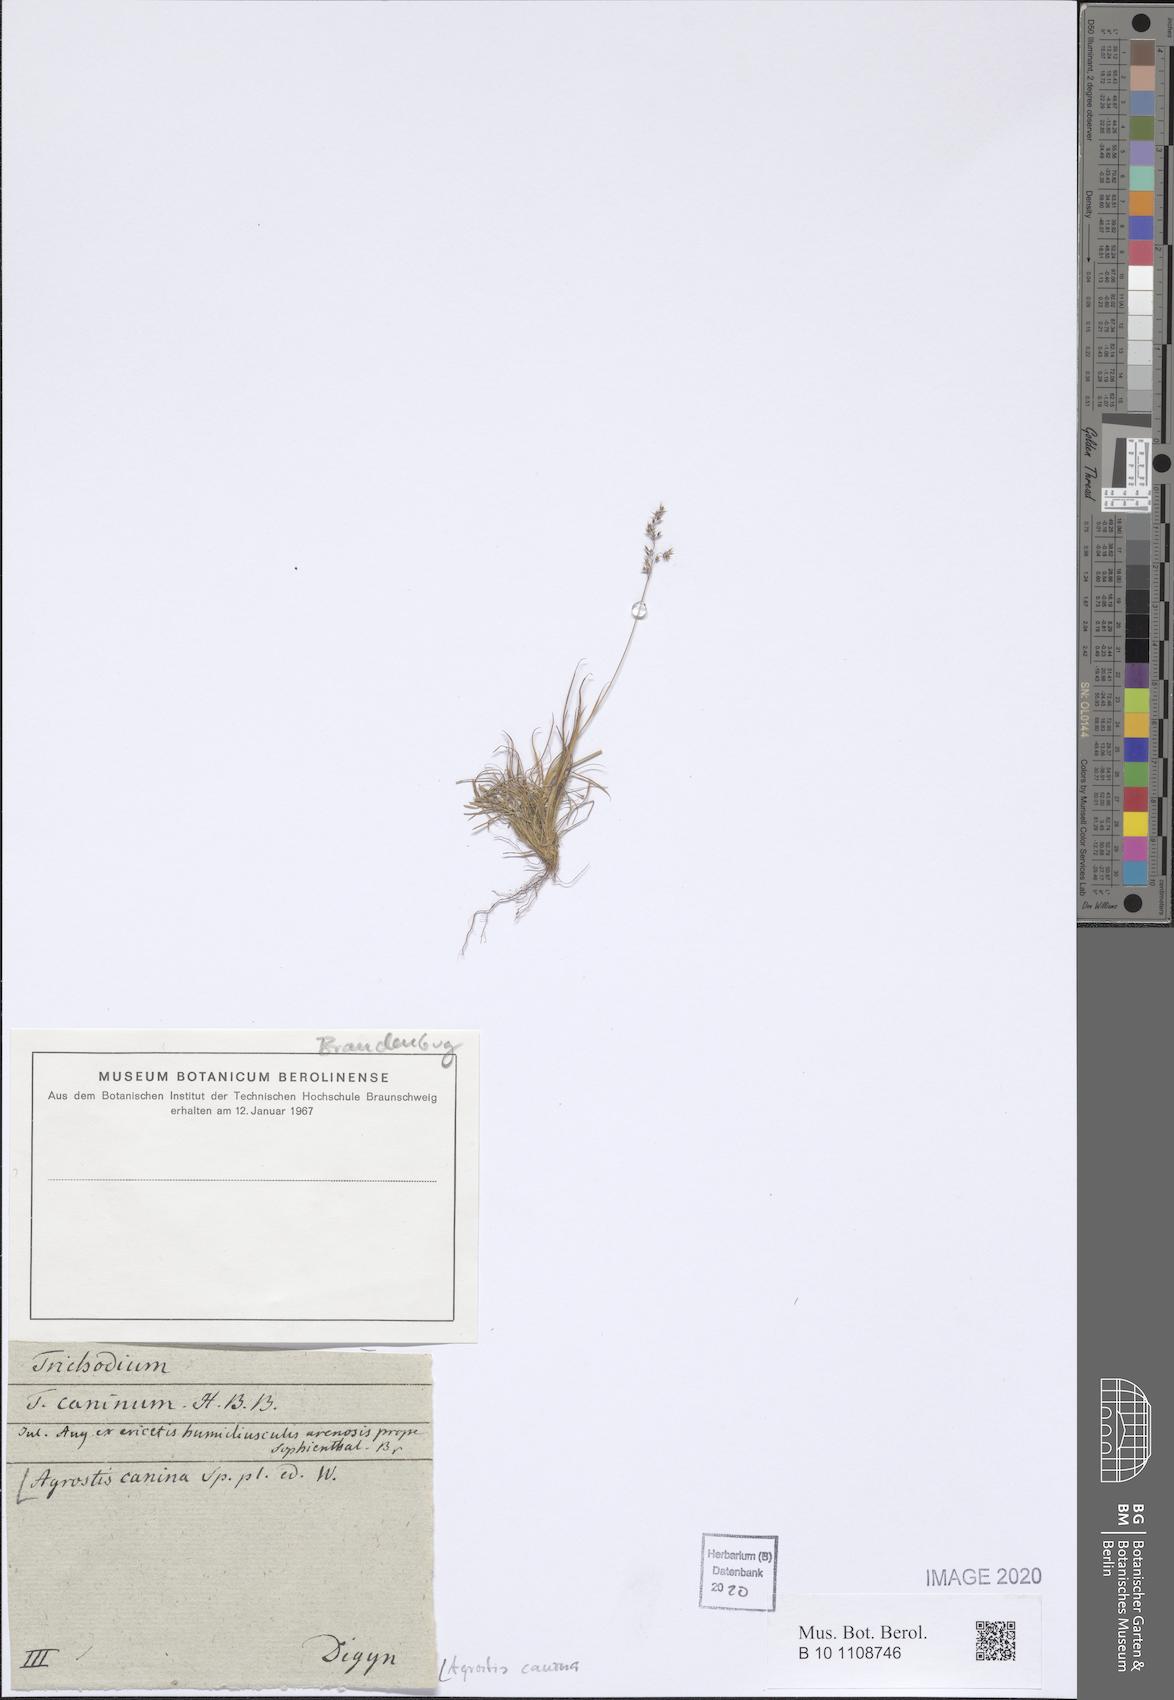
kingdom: Plantae
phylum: Tracheophyta
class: Liliopsida
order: Poales
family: Poaceae
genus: Agrostis
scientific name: Agrostis canina
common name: Velvet bent
